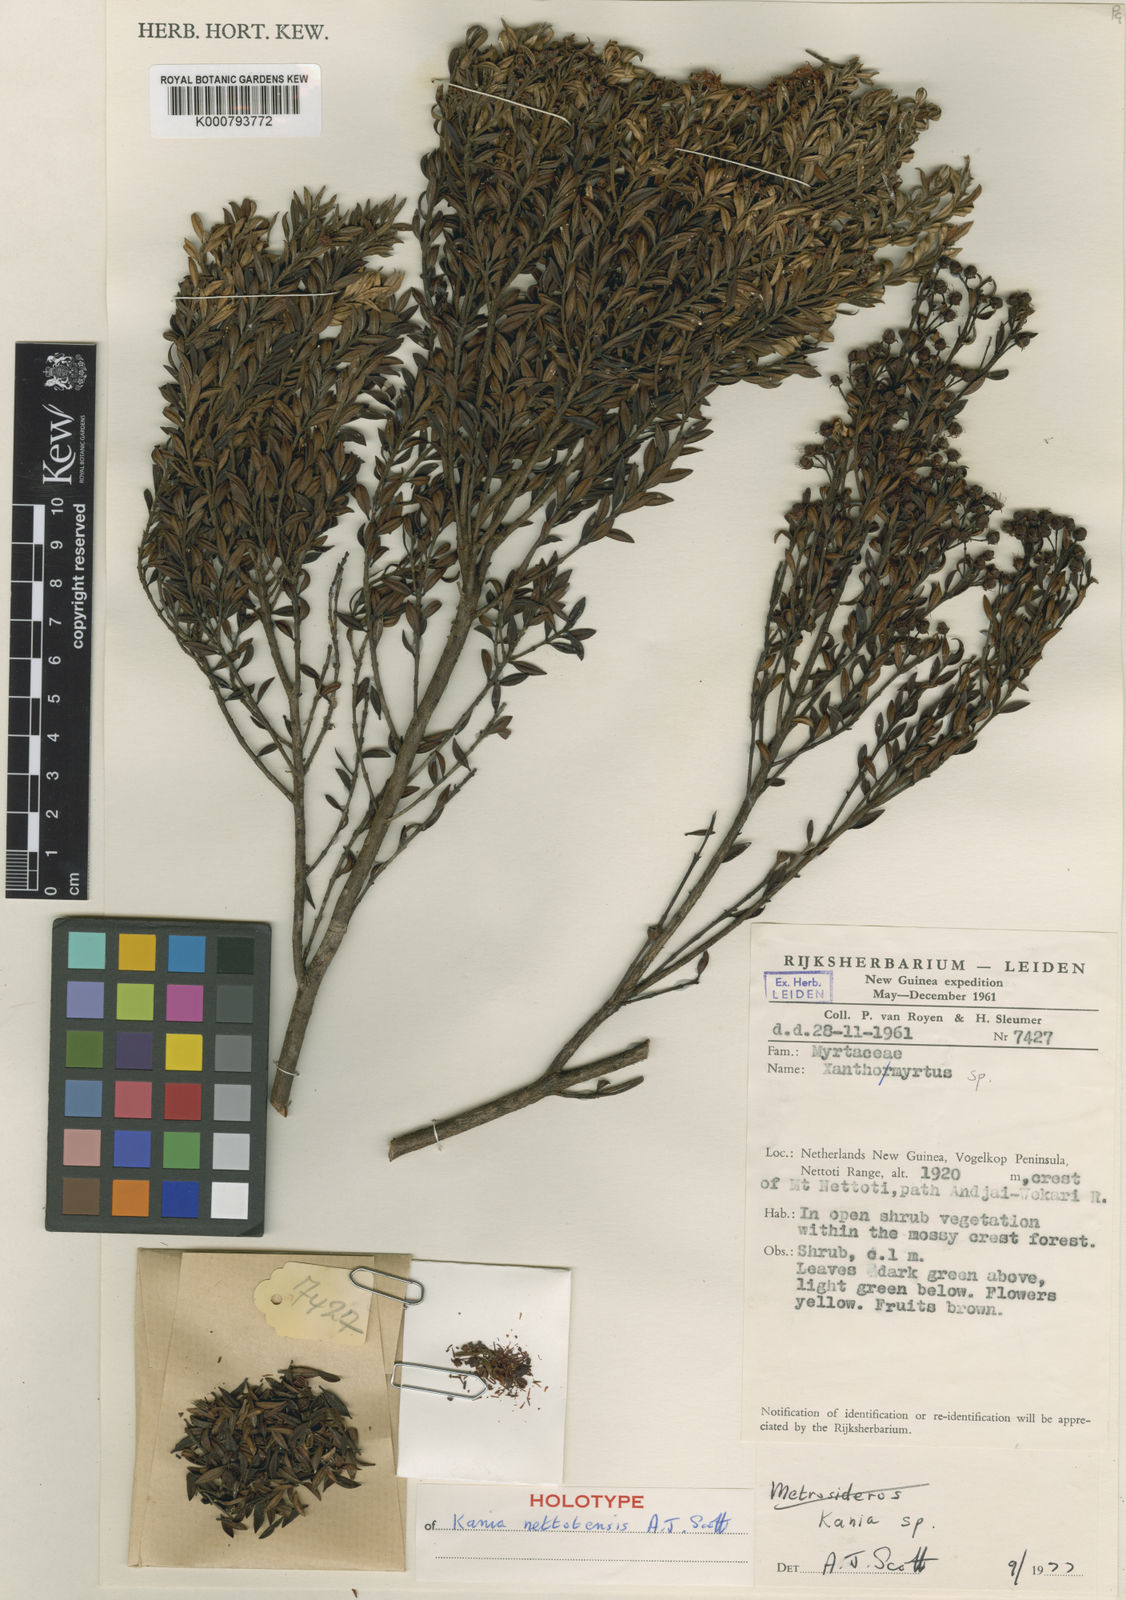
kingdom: Plantae
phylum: Tracheophyta
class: Magnoliopsida
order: Myrtales
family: Myrtaceae
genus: Kania
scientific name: Kania nettotensis
